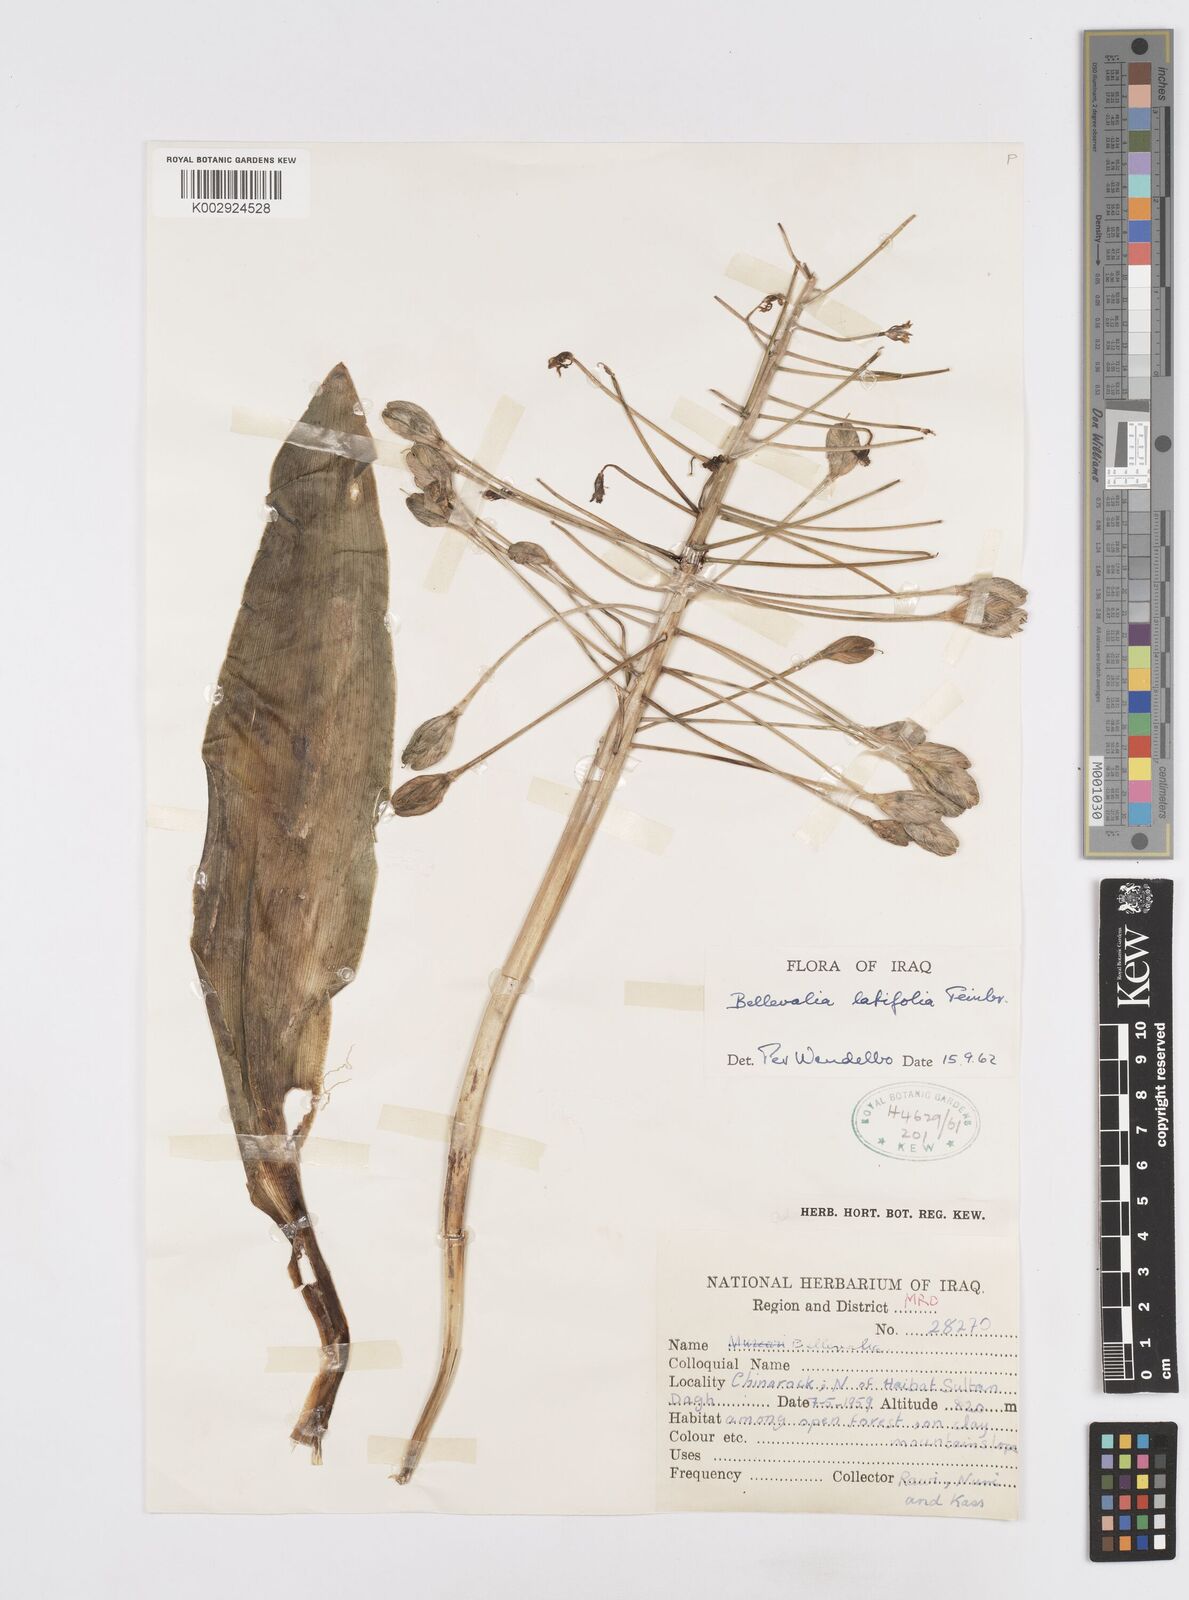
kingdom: Plantae
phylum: Tracheophyta
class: Liliopsida
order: Asparagales
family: Asparagaceae
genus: Bellevalia
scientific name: Bellevalia olivieri
